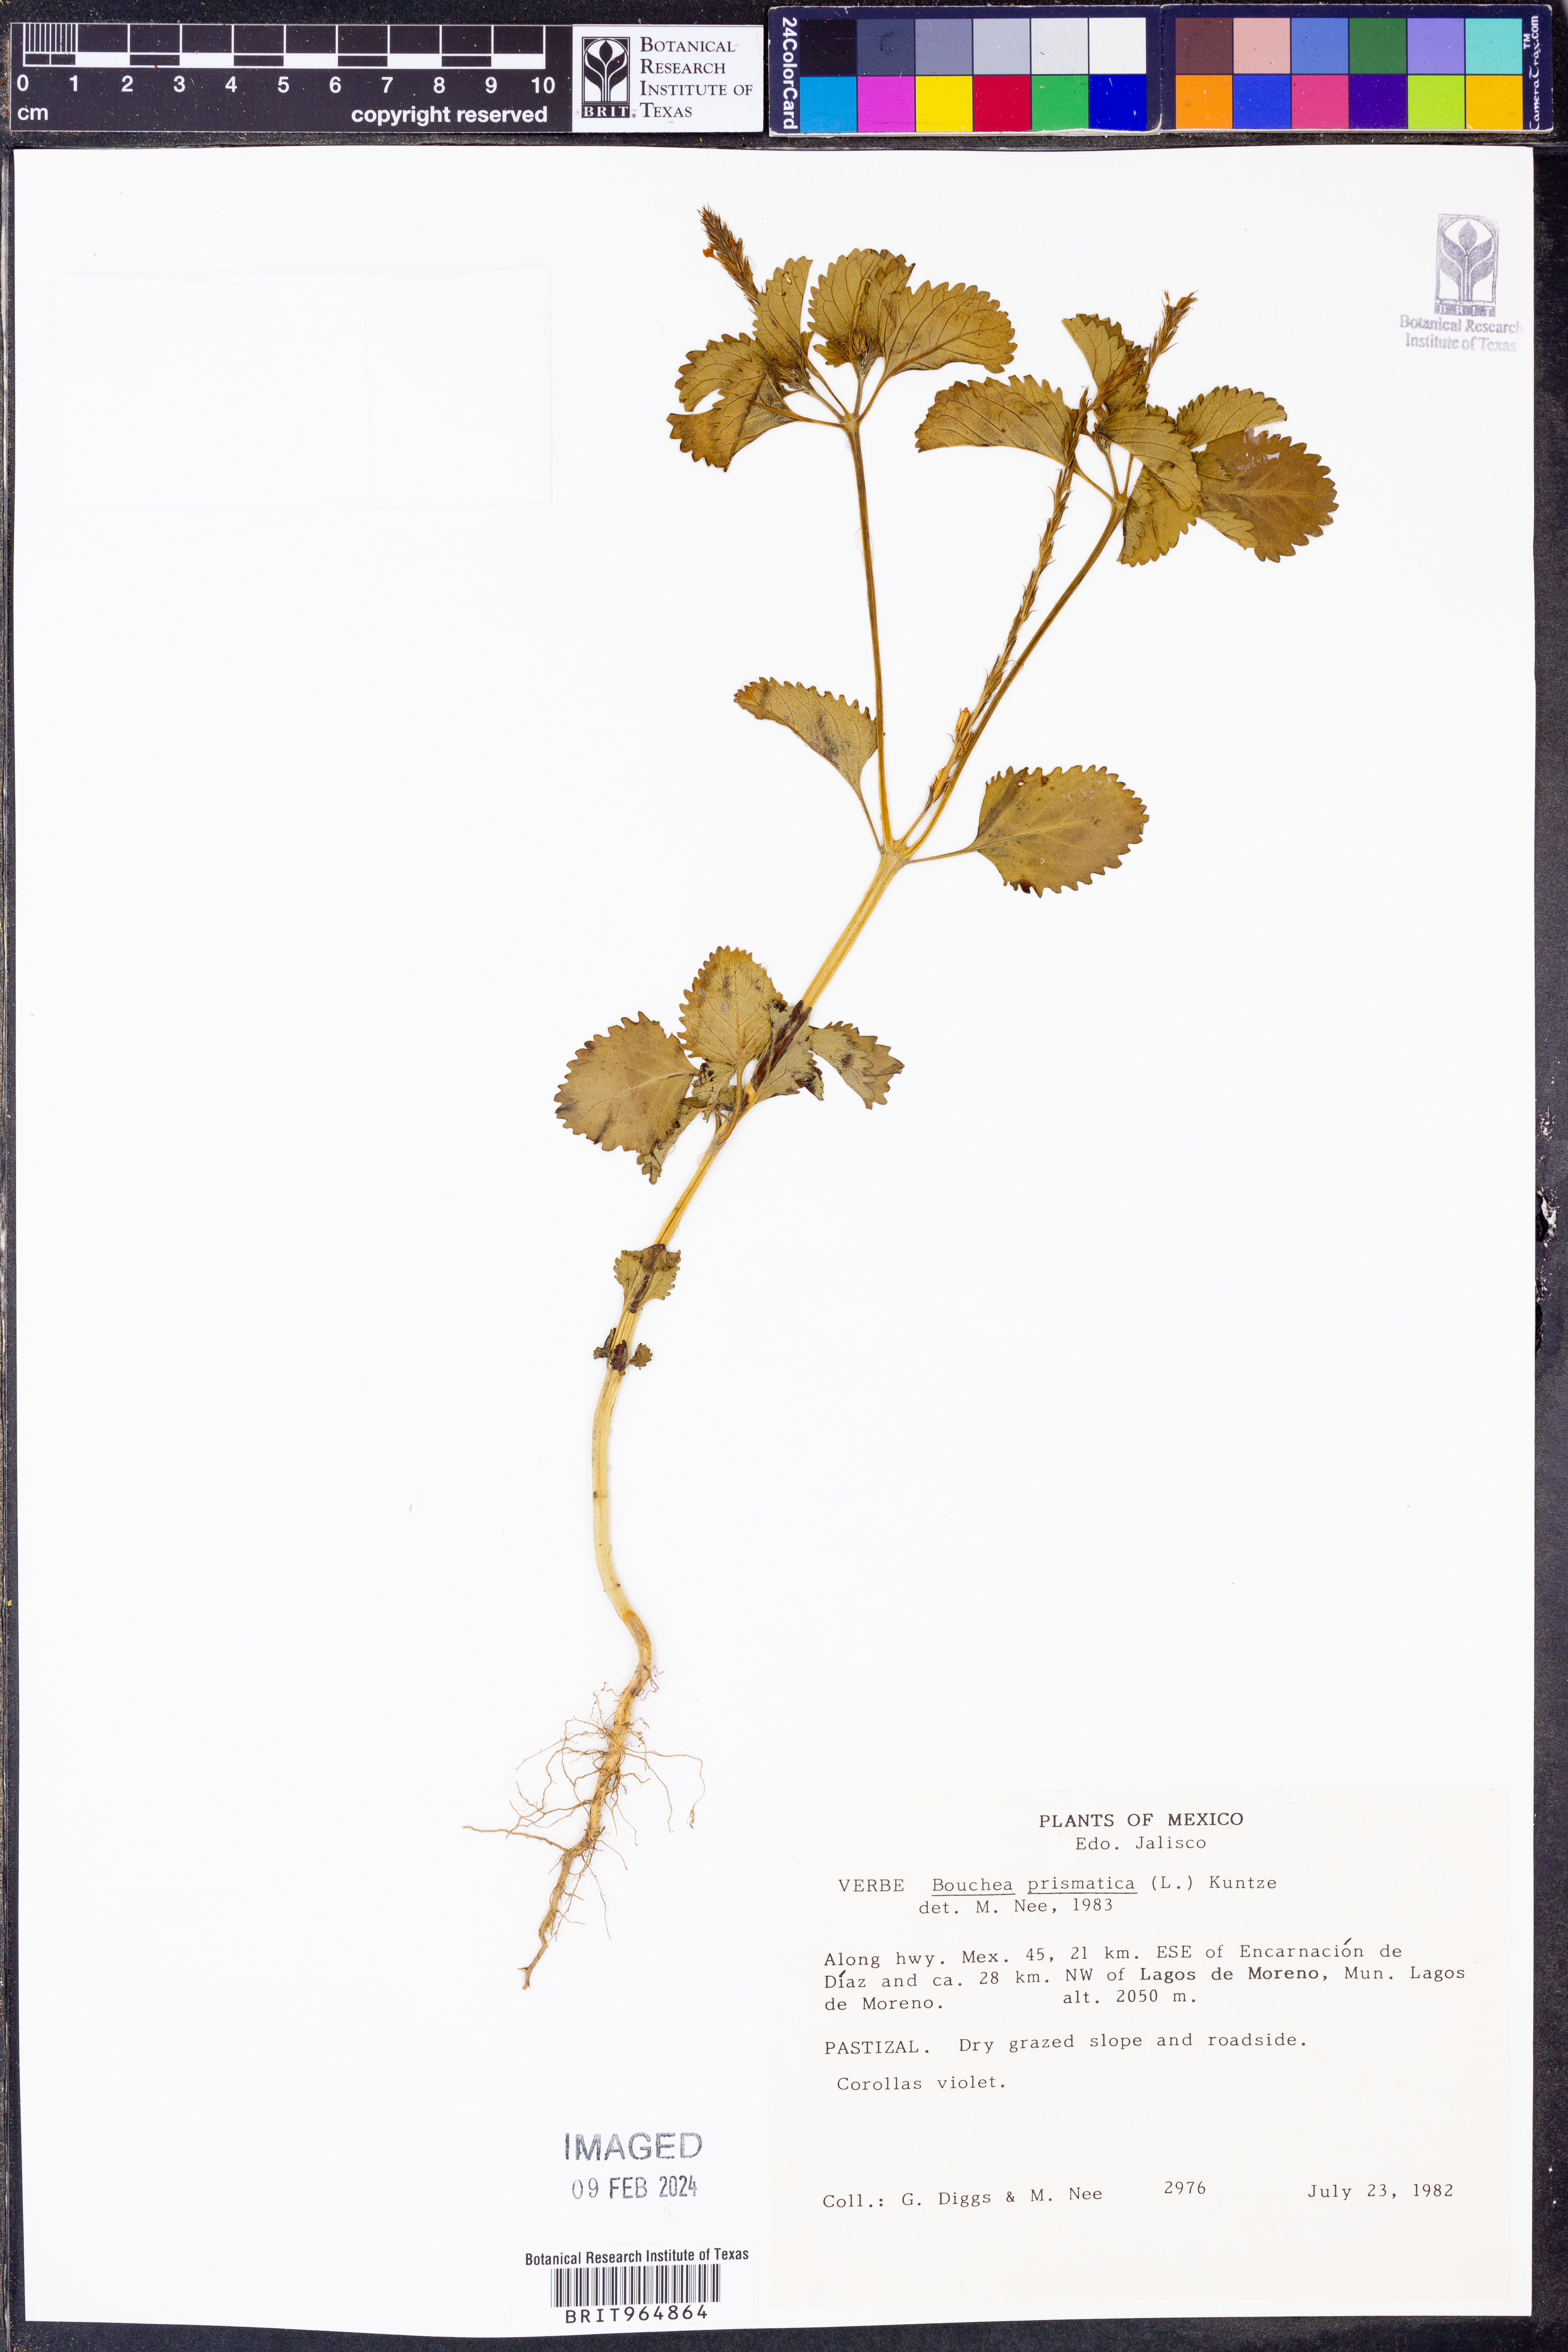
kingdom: Plantae
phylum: Tracheophyta
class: Magnoliopsida
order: Lamiales
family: Verbenaceae
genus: Bouchea
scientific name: Bouchea
